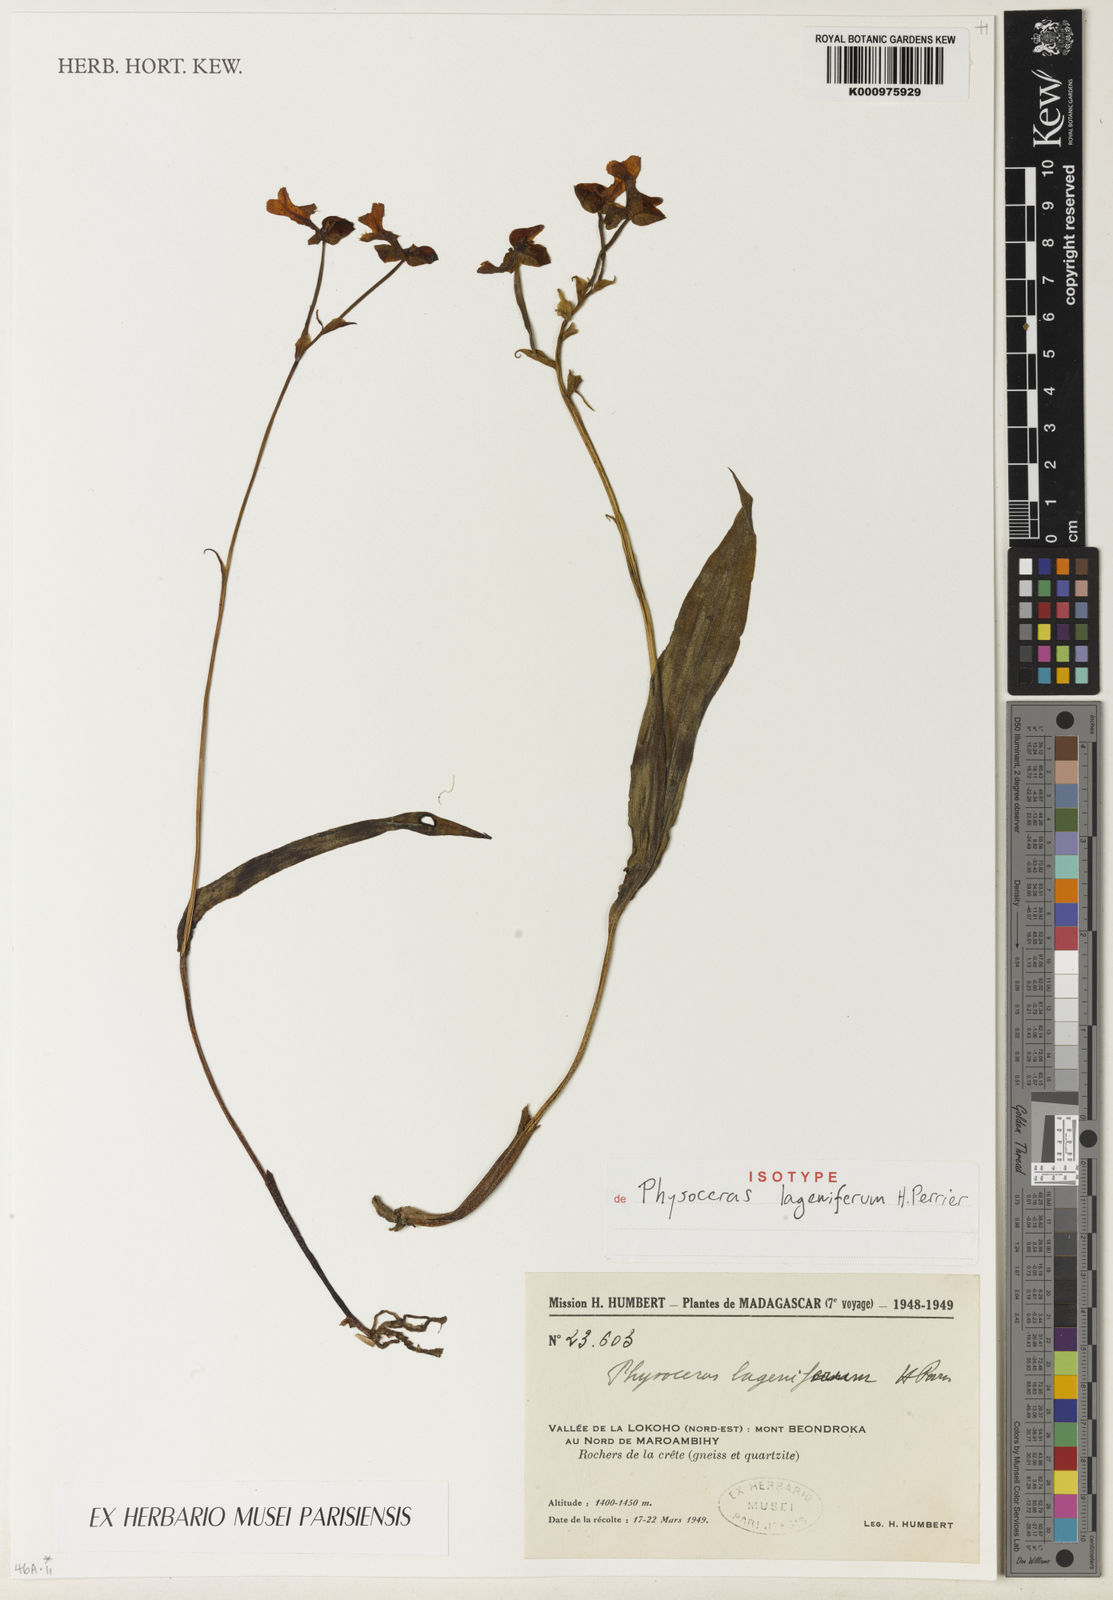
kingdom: Plantae
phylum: Tracheophyta
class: Liliopsida
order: Asparagales
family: Orchidaceae
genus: Cynorkis
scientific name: Cynorkis lagenifera
